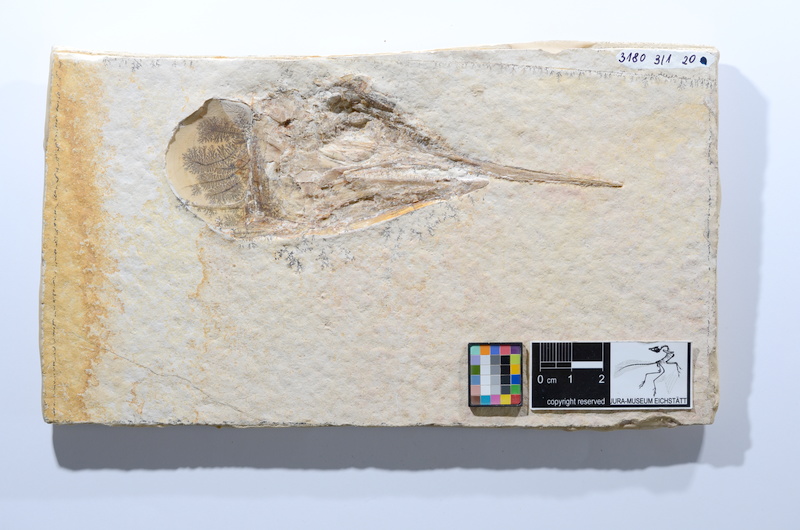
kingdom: Animalia
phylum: Chordata
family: Aspidorhynchidae
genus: Aspidorhynchus
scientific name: Aspidorhynchus acutirostris
